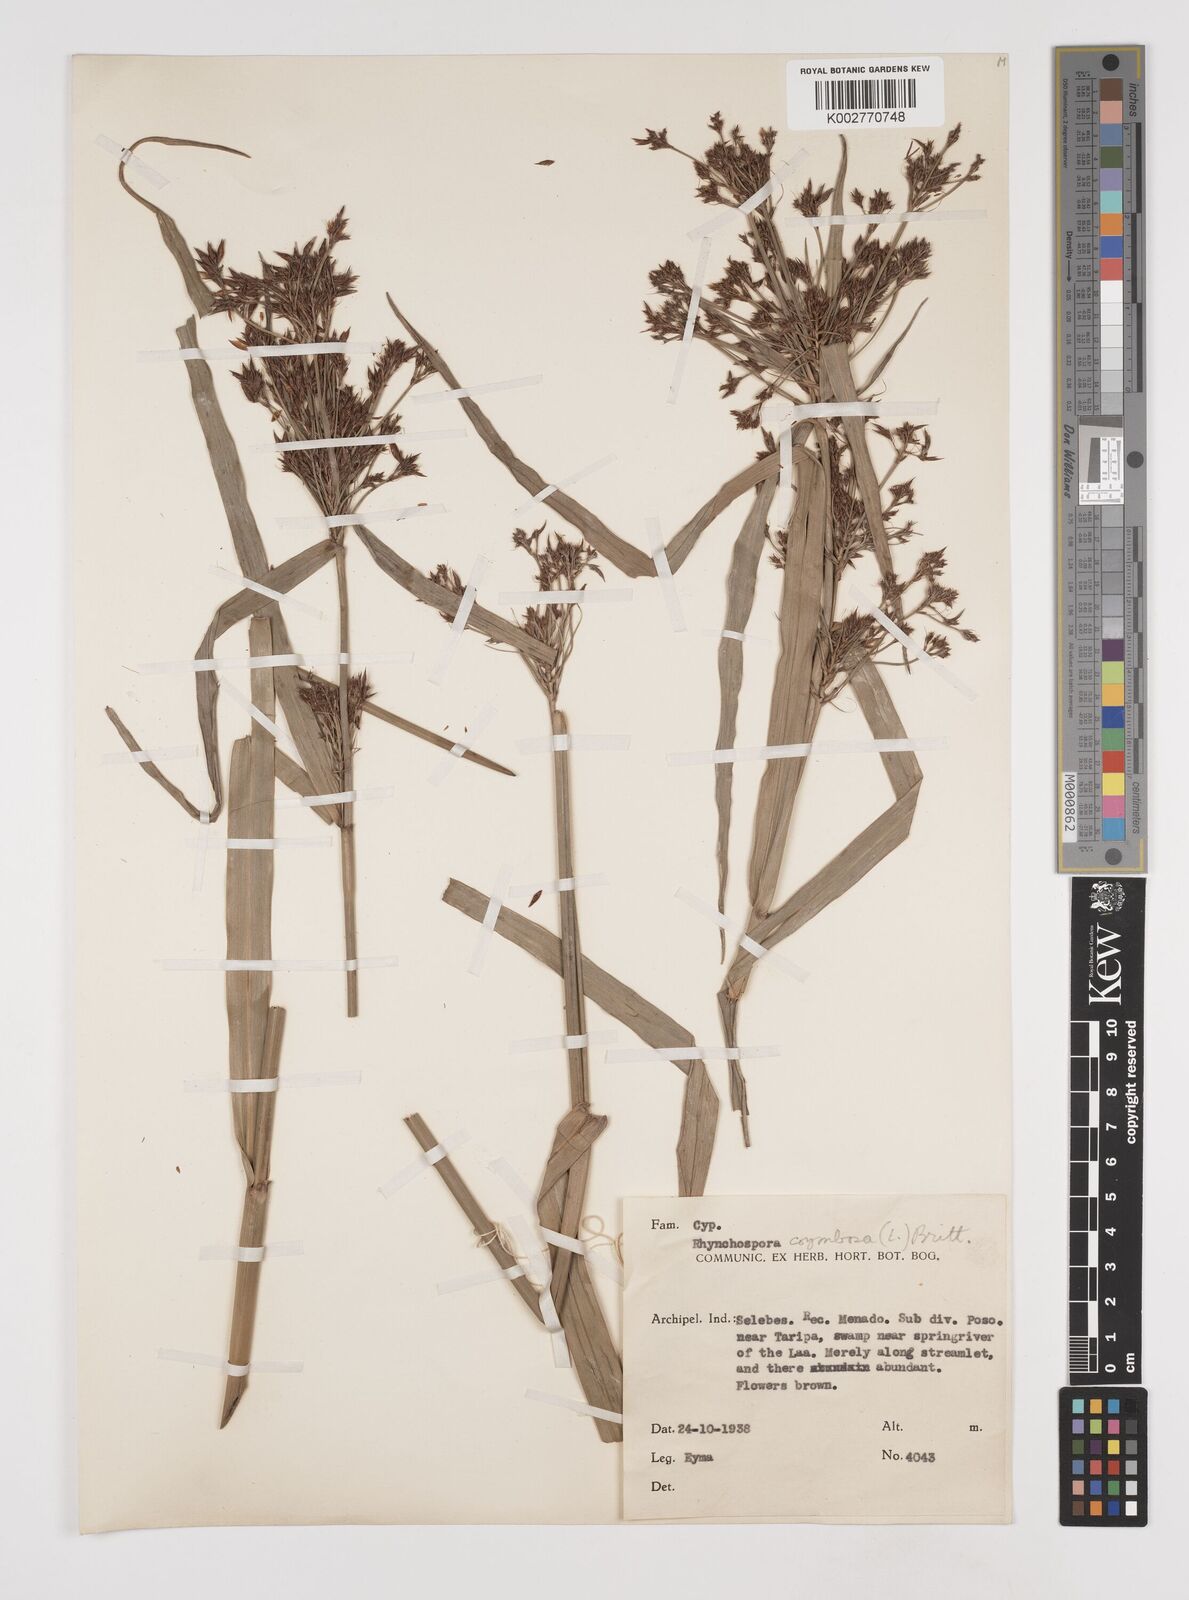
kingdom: Plantae
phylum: Tracheophyta
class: Liliopsida
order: Poales
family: Cyperaceae
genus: Rhynchospora
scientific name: Rhynchospora corymbosa
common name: Golden beak sedge
